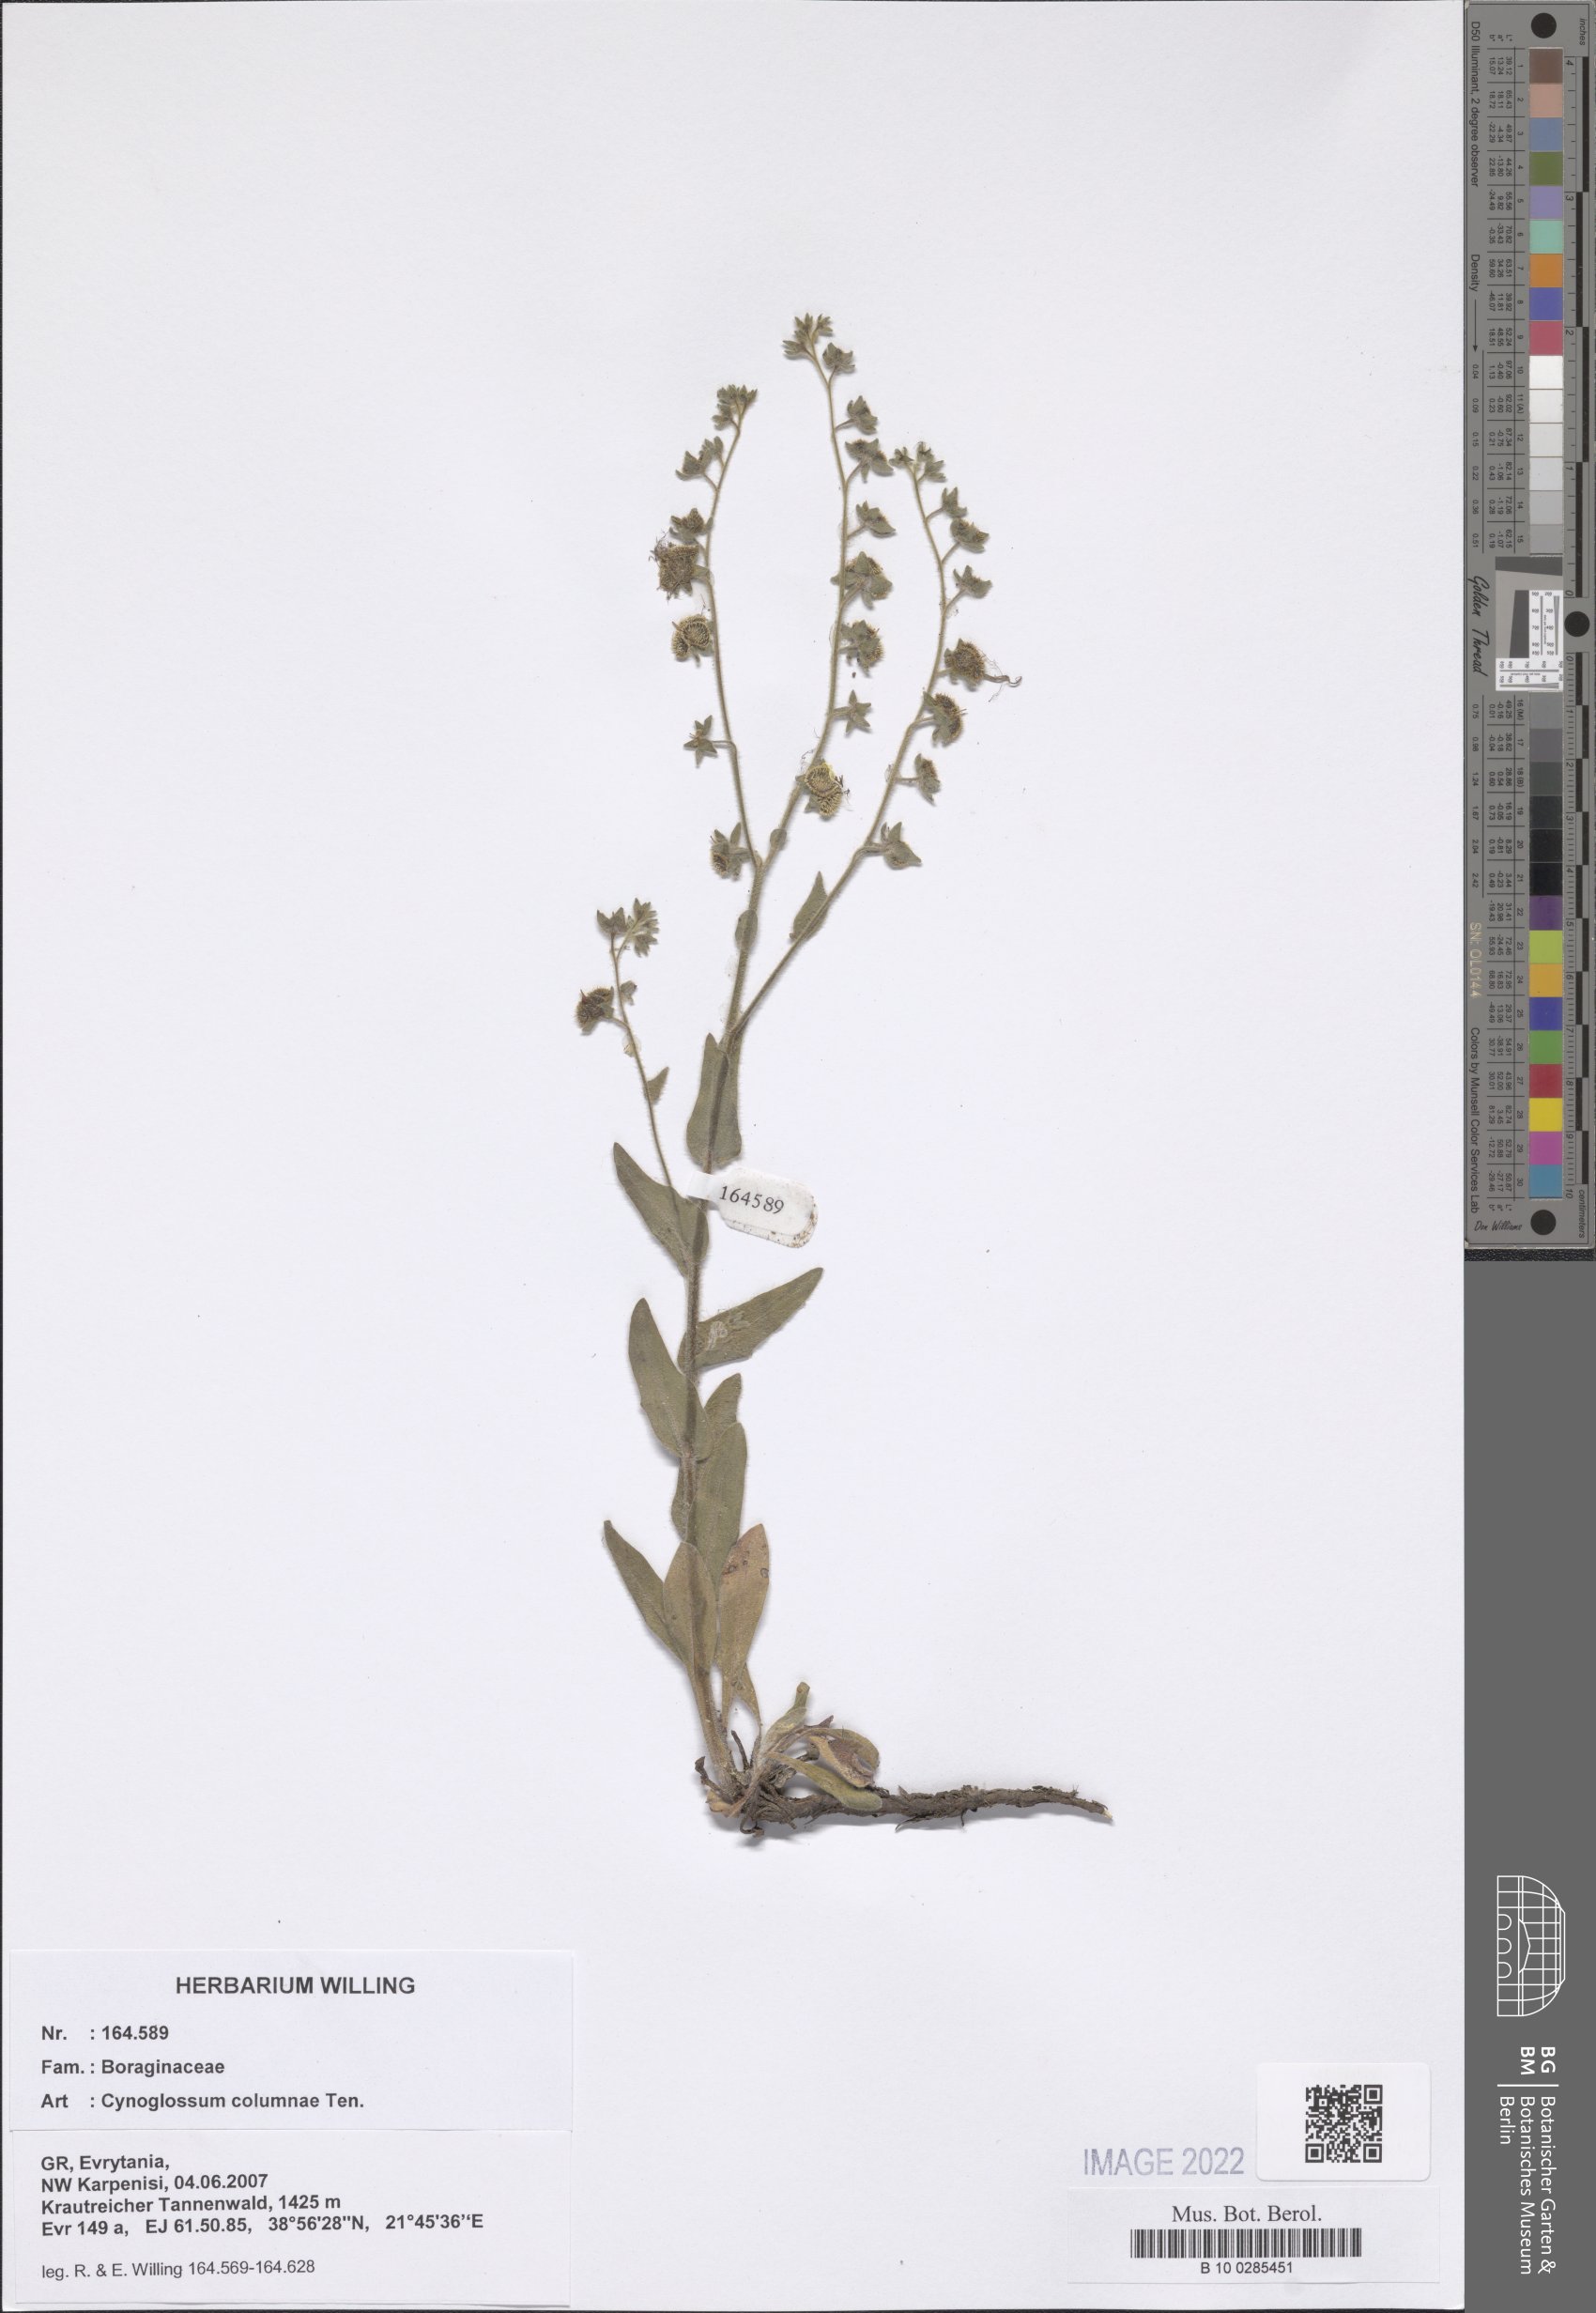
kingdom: Plantae
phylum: Tracheophyta
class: Magnoliopsida
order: Boraginales
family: Boraginaceae
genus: Rindera
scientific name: Rindera columnae
